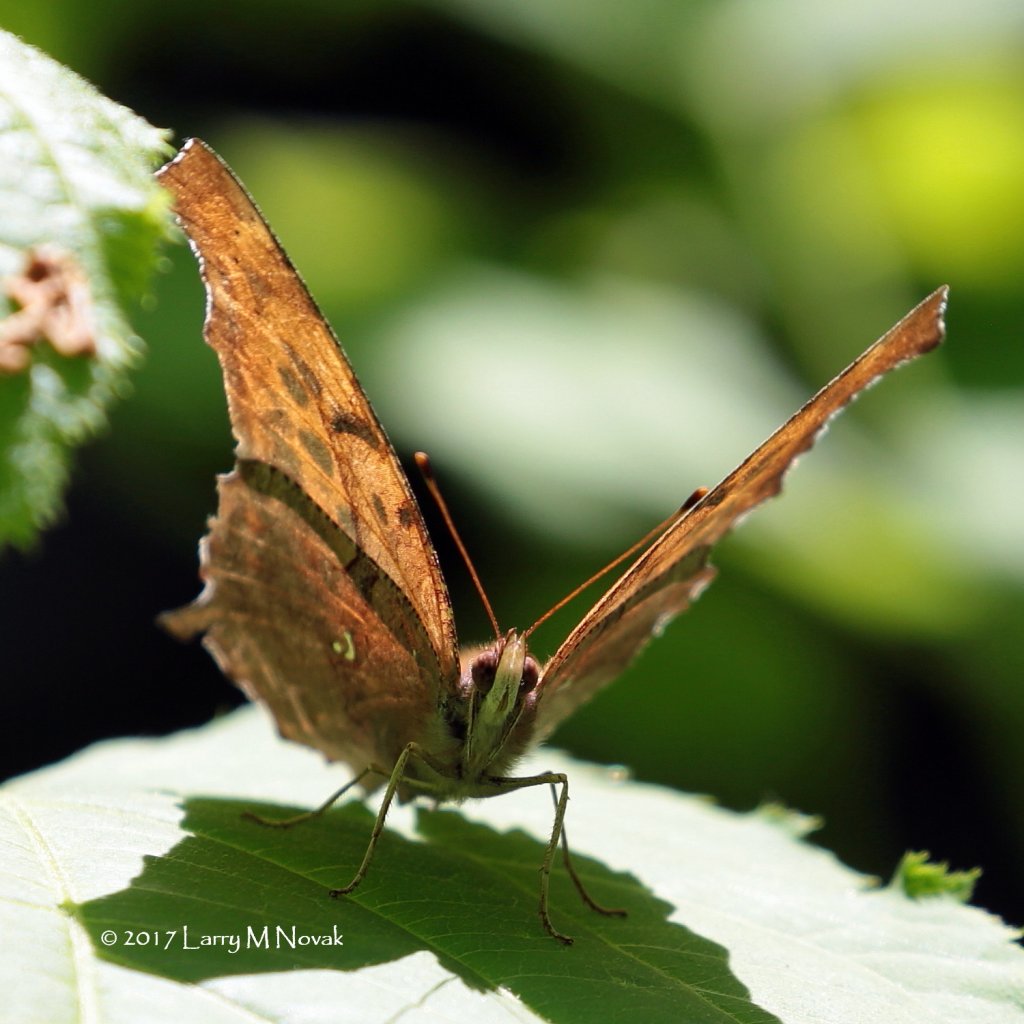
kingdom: Animalia
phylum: Arthropoda
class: Insecta
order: Lepidoptera
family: Nymphalidae
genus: Polygonia
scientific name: Polygonia interrogationis
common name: Question Mark
